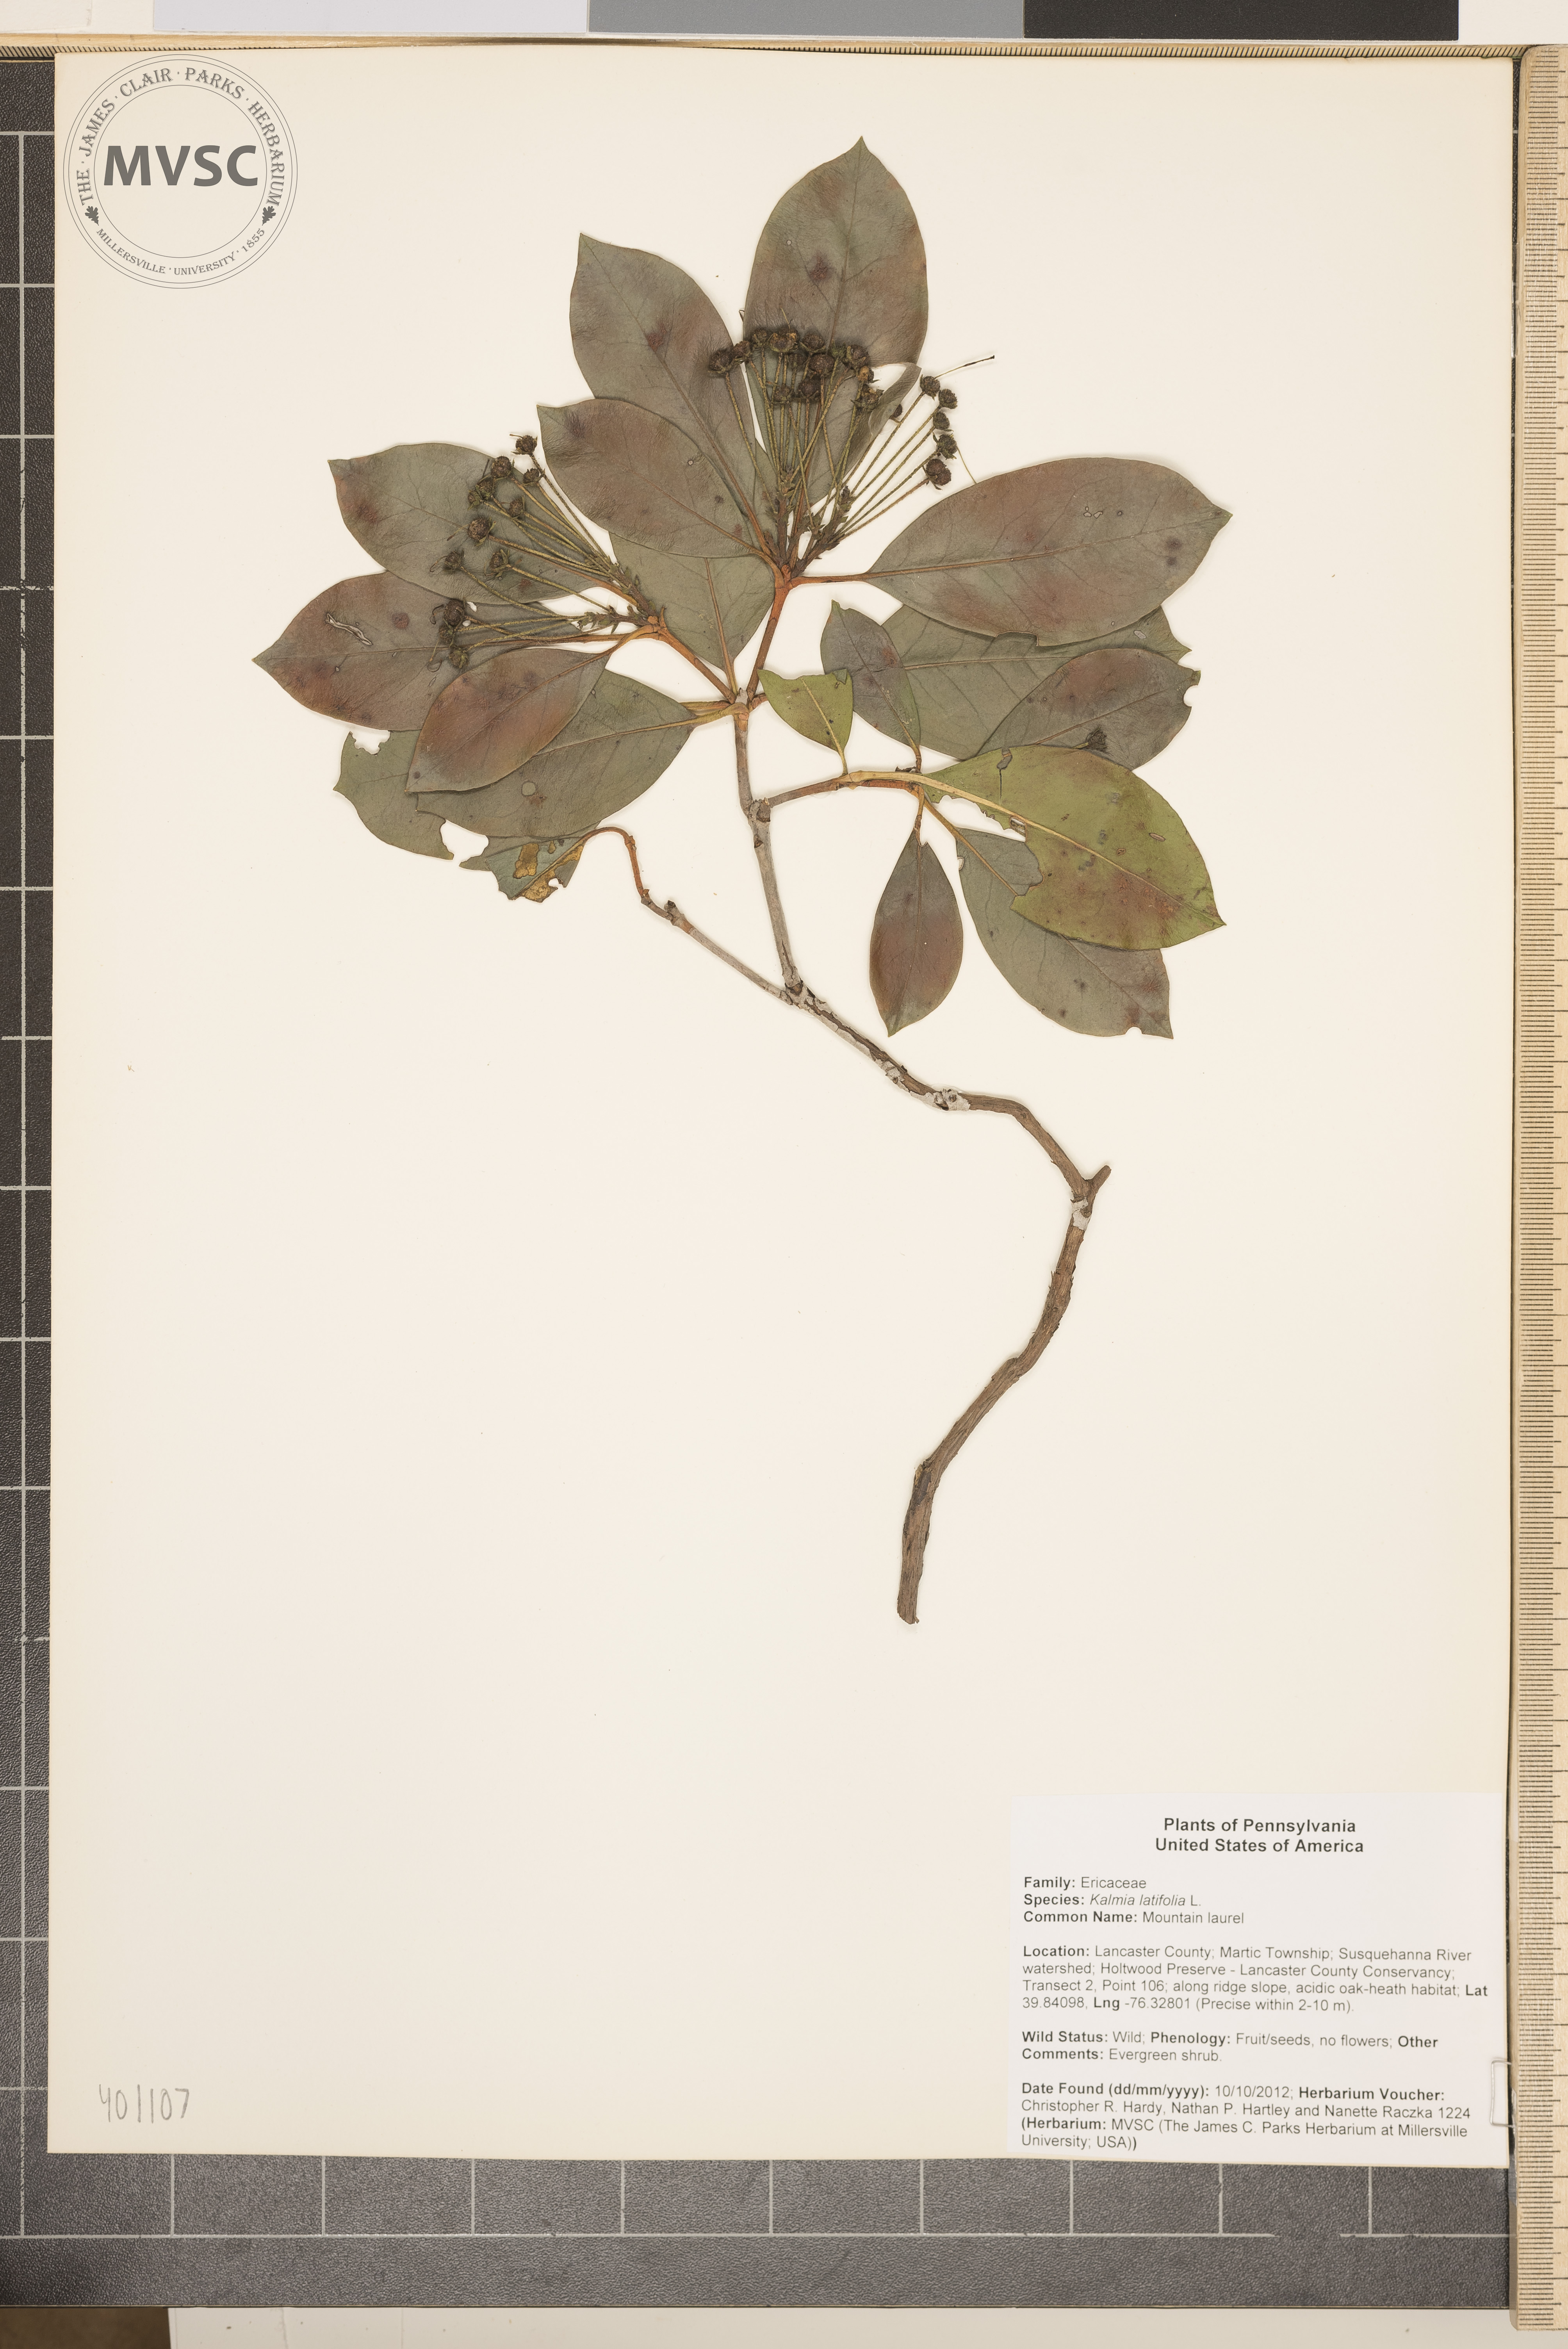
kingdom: Plantae
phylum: Tracheophyta
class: Magnoliopsida
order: Ericales
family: Ericaceae
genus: Kalmia
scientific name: Kalmia latifolia
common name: Mountain laurel
